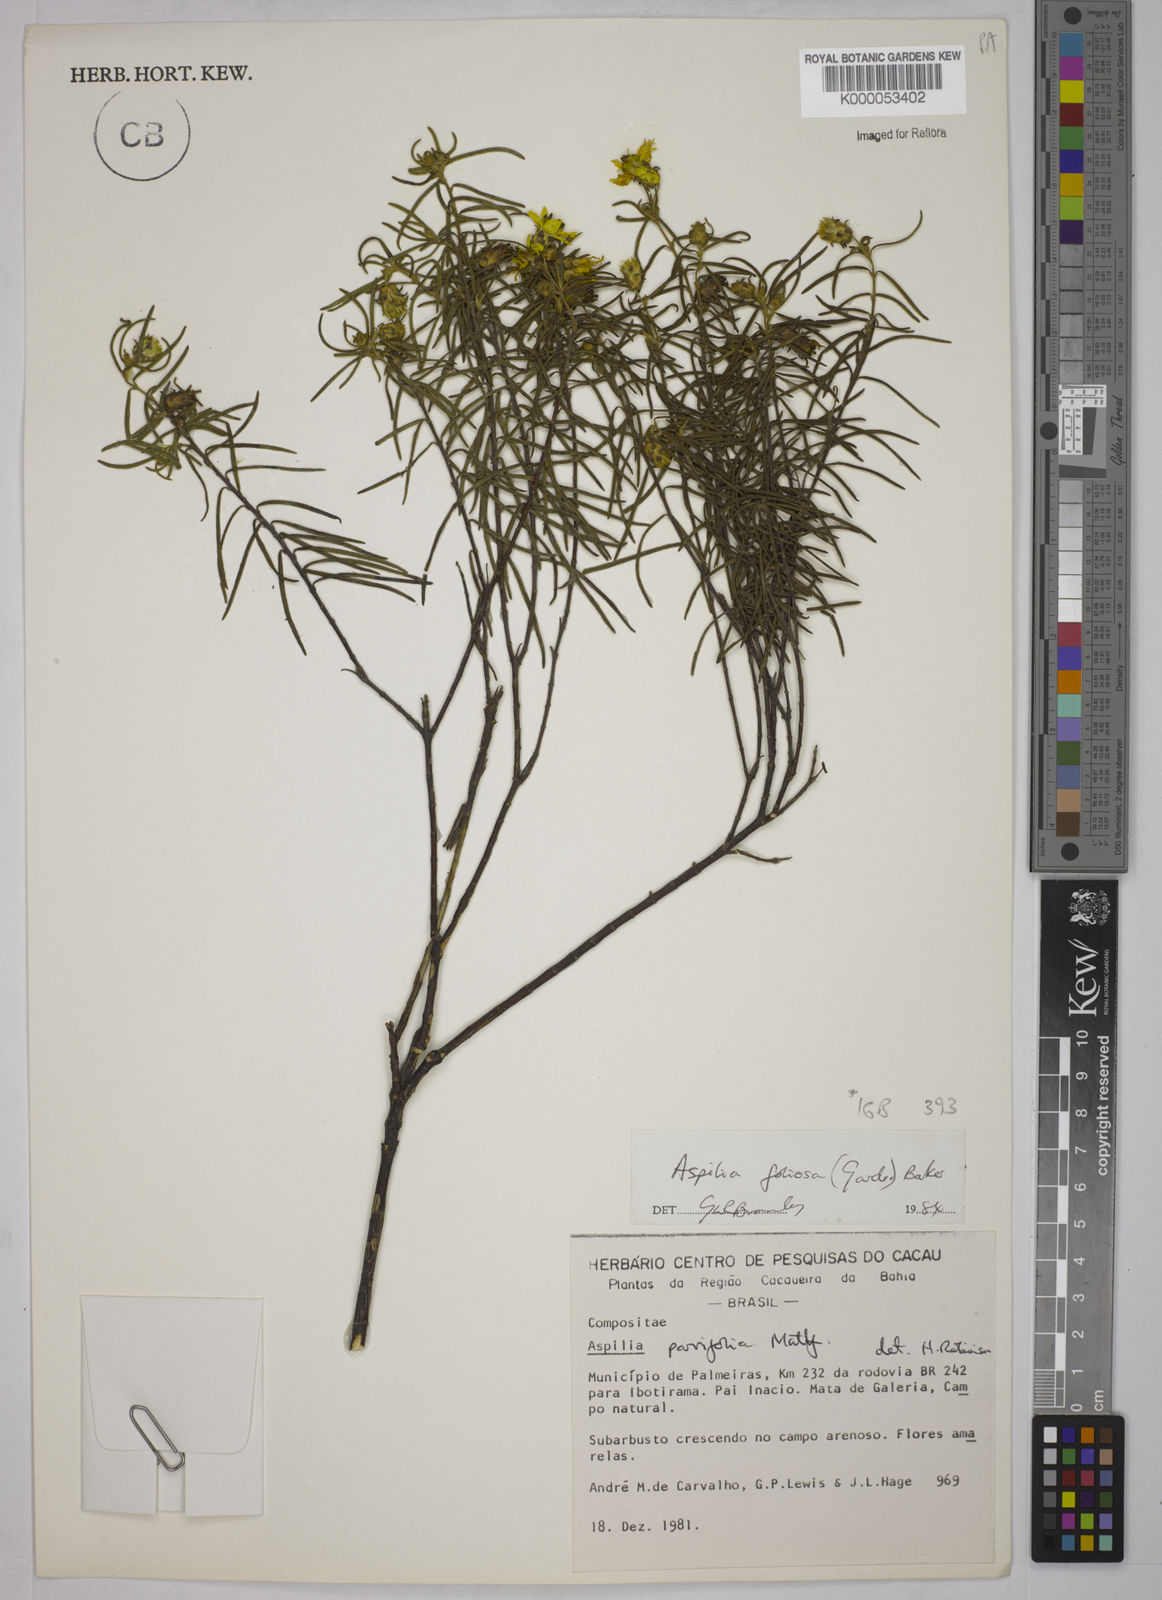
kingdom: Plantae
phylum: Tracheophyta
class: Magnoliopsida
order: Asterales
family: Asteraceae
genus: Aspilia
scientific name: Aspilia
